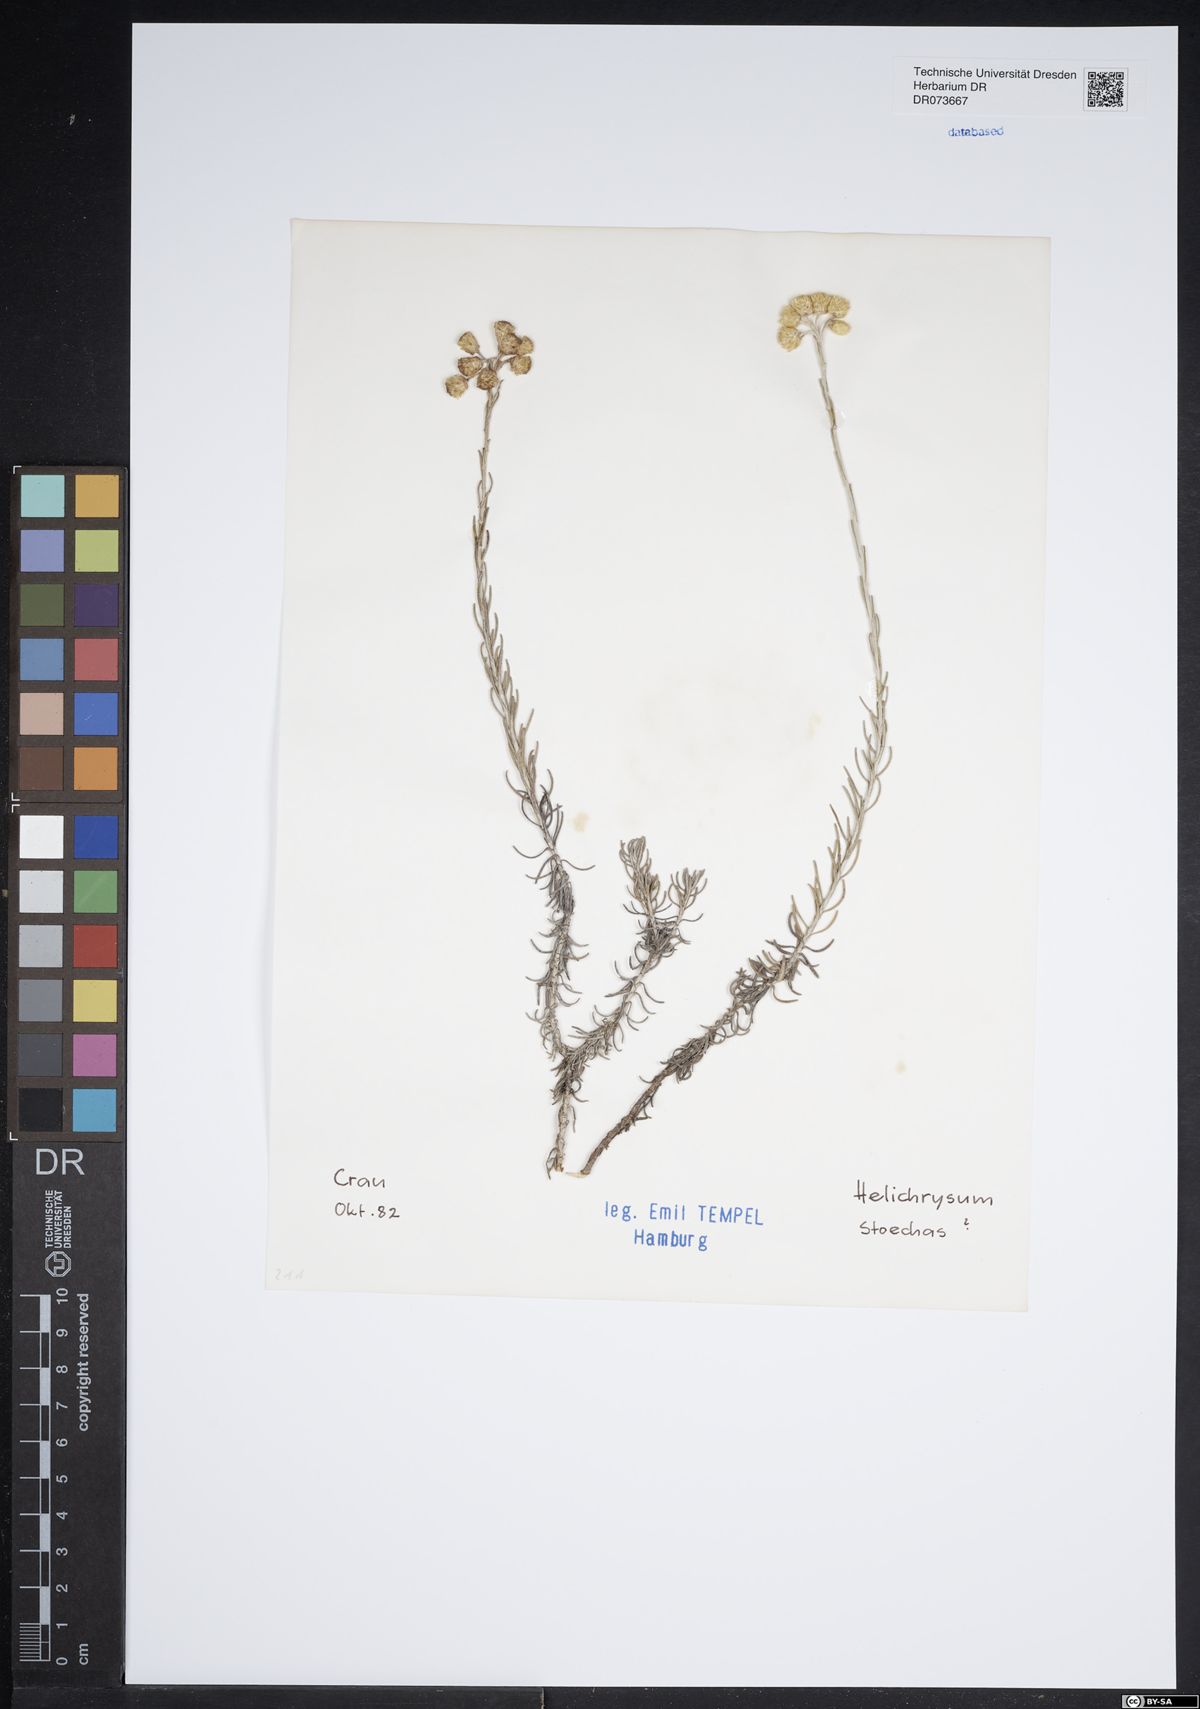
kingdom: Plantae
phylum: Tracheophyta
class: Magnoliopsida
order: Asterales
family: Asteraceae
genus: Helichrysum
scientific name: Helichrysum stoechas
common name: Goldilocks
